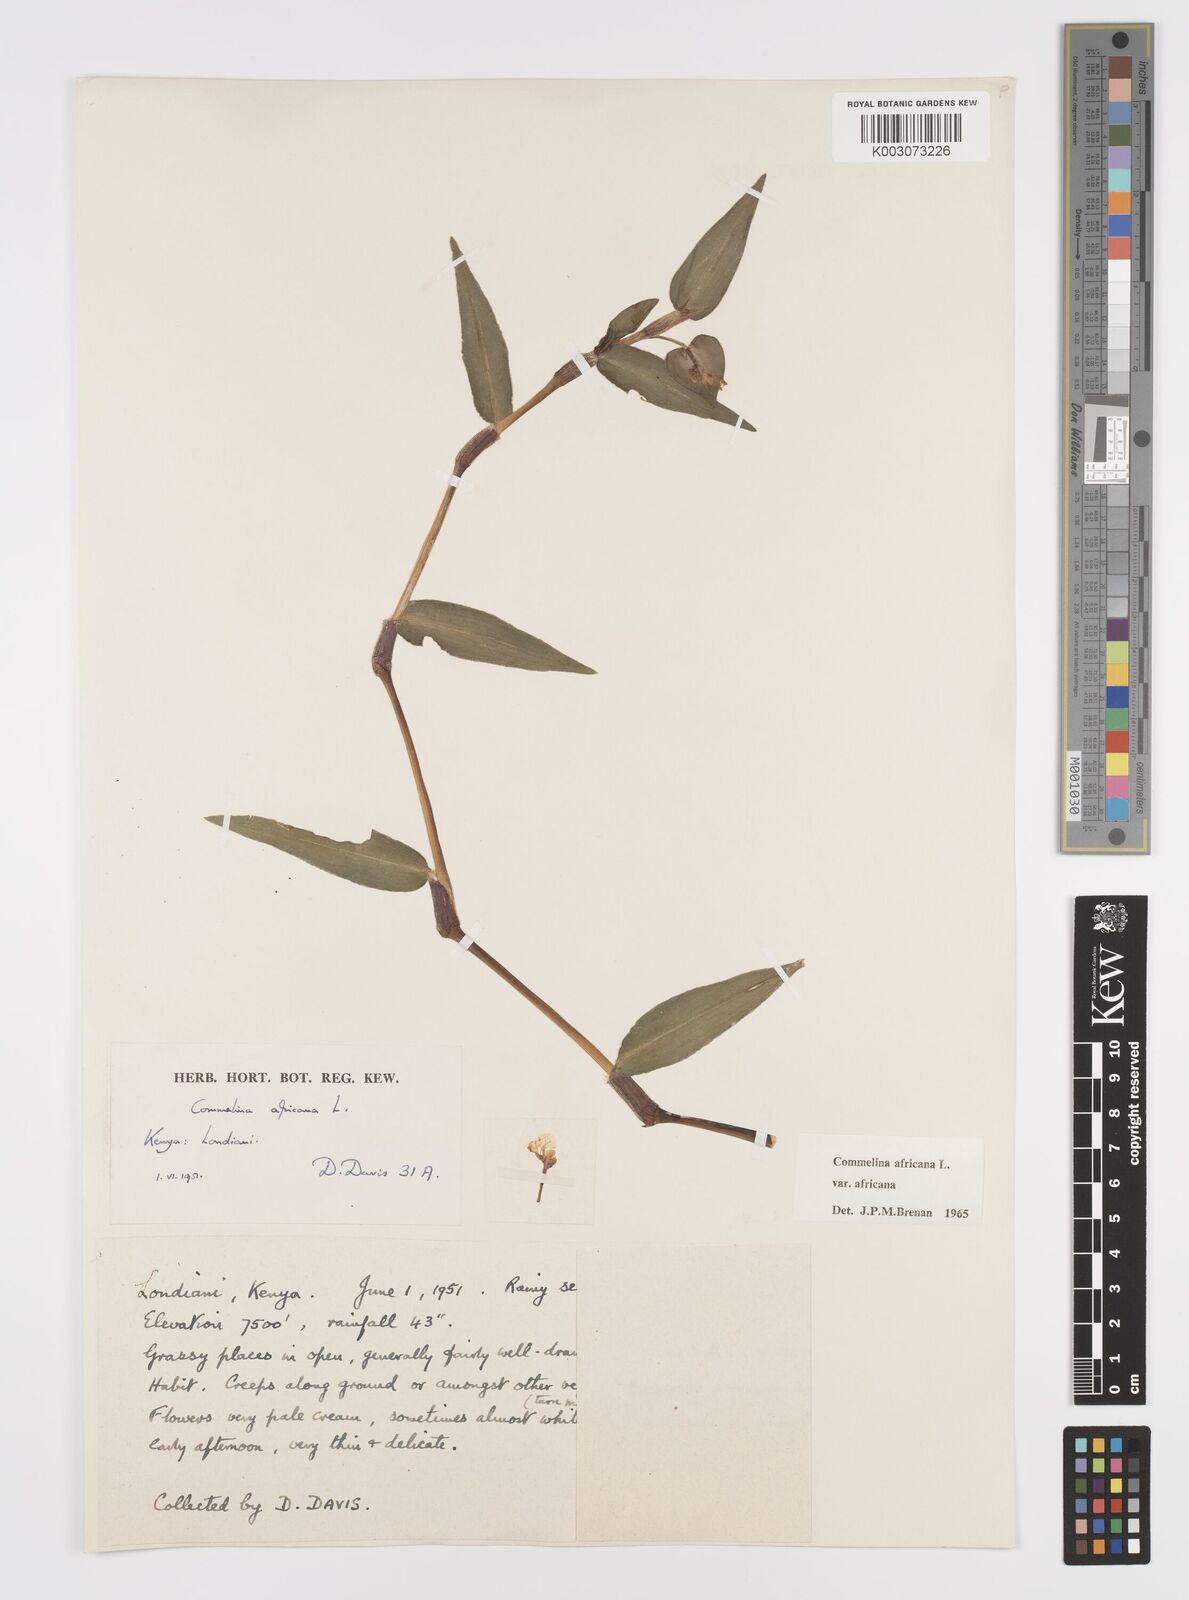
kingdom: Plantae
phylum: Tracheophyta
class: Liliopsida
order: Commelinales
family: Commelinaceae
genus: Commelina
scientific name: Commelina africana
